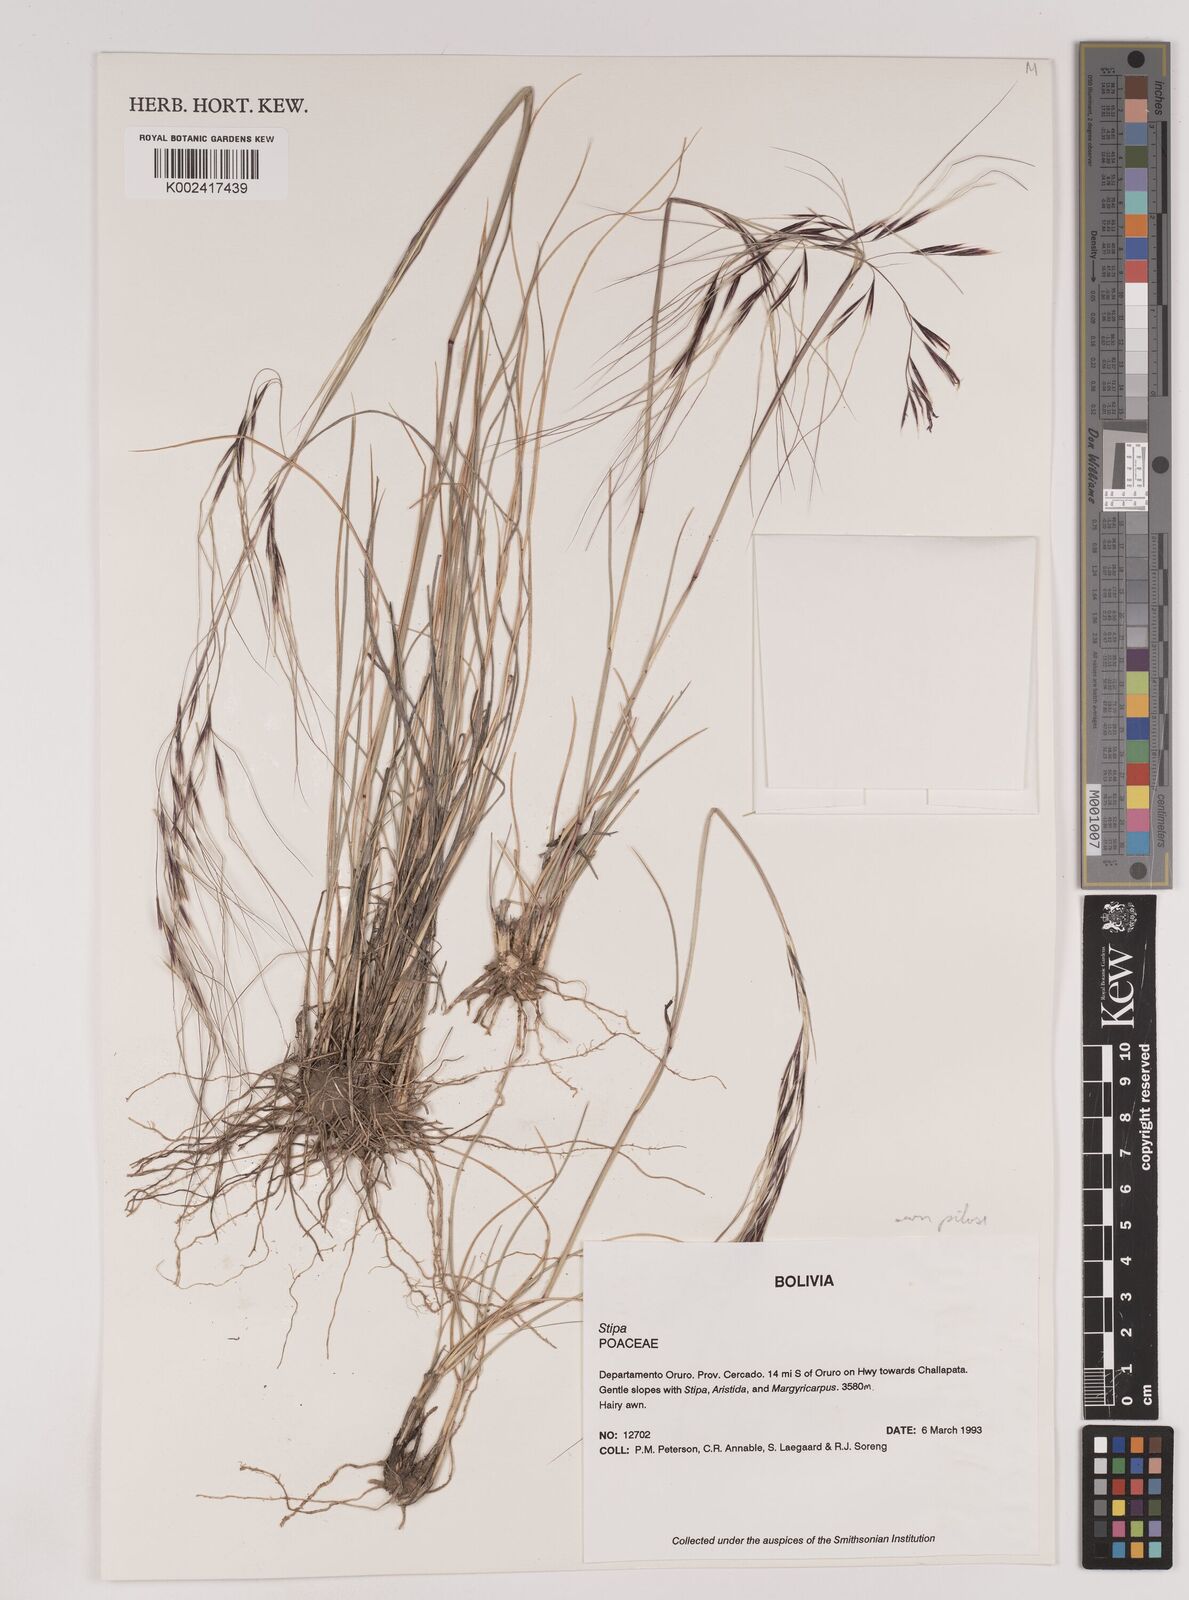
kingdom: Plantae
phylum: Tracheophyta
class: Liliopsida
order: Poales
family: Poaceae
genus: Nassella
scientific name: Nassella arcuata
